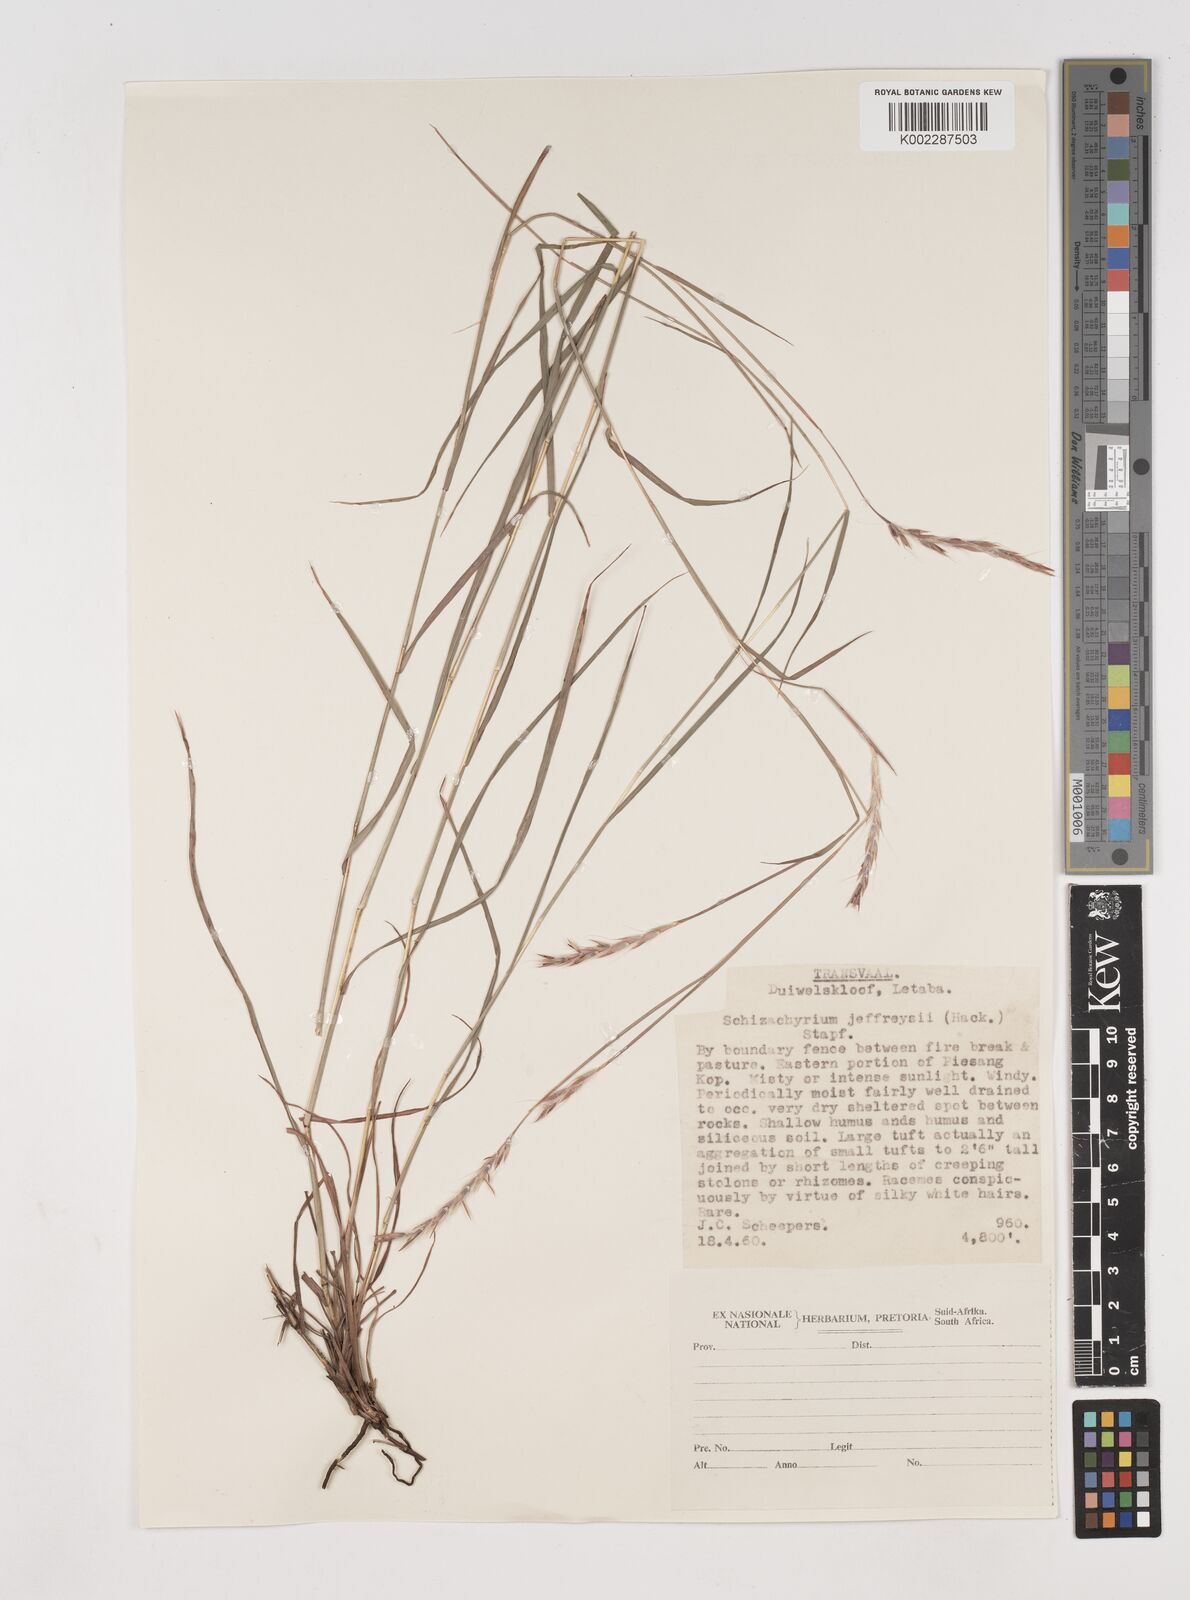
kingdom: Plantae
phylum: Tracheophyta
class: Liliopsida
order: Poales
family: Poaceae
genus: Schizachyrium
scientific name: Schizachyrium jeffreysii
